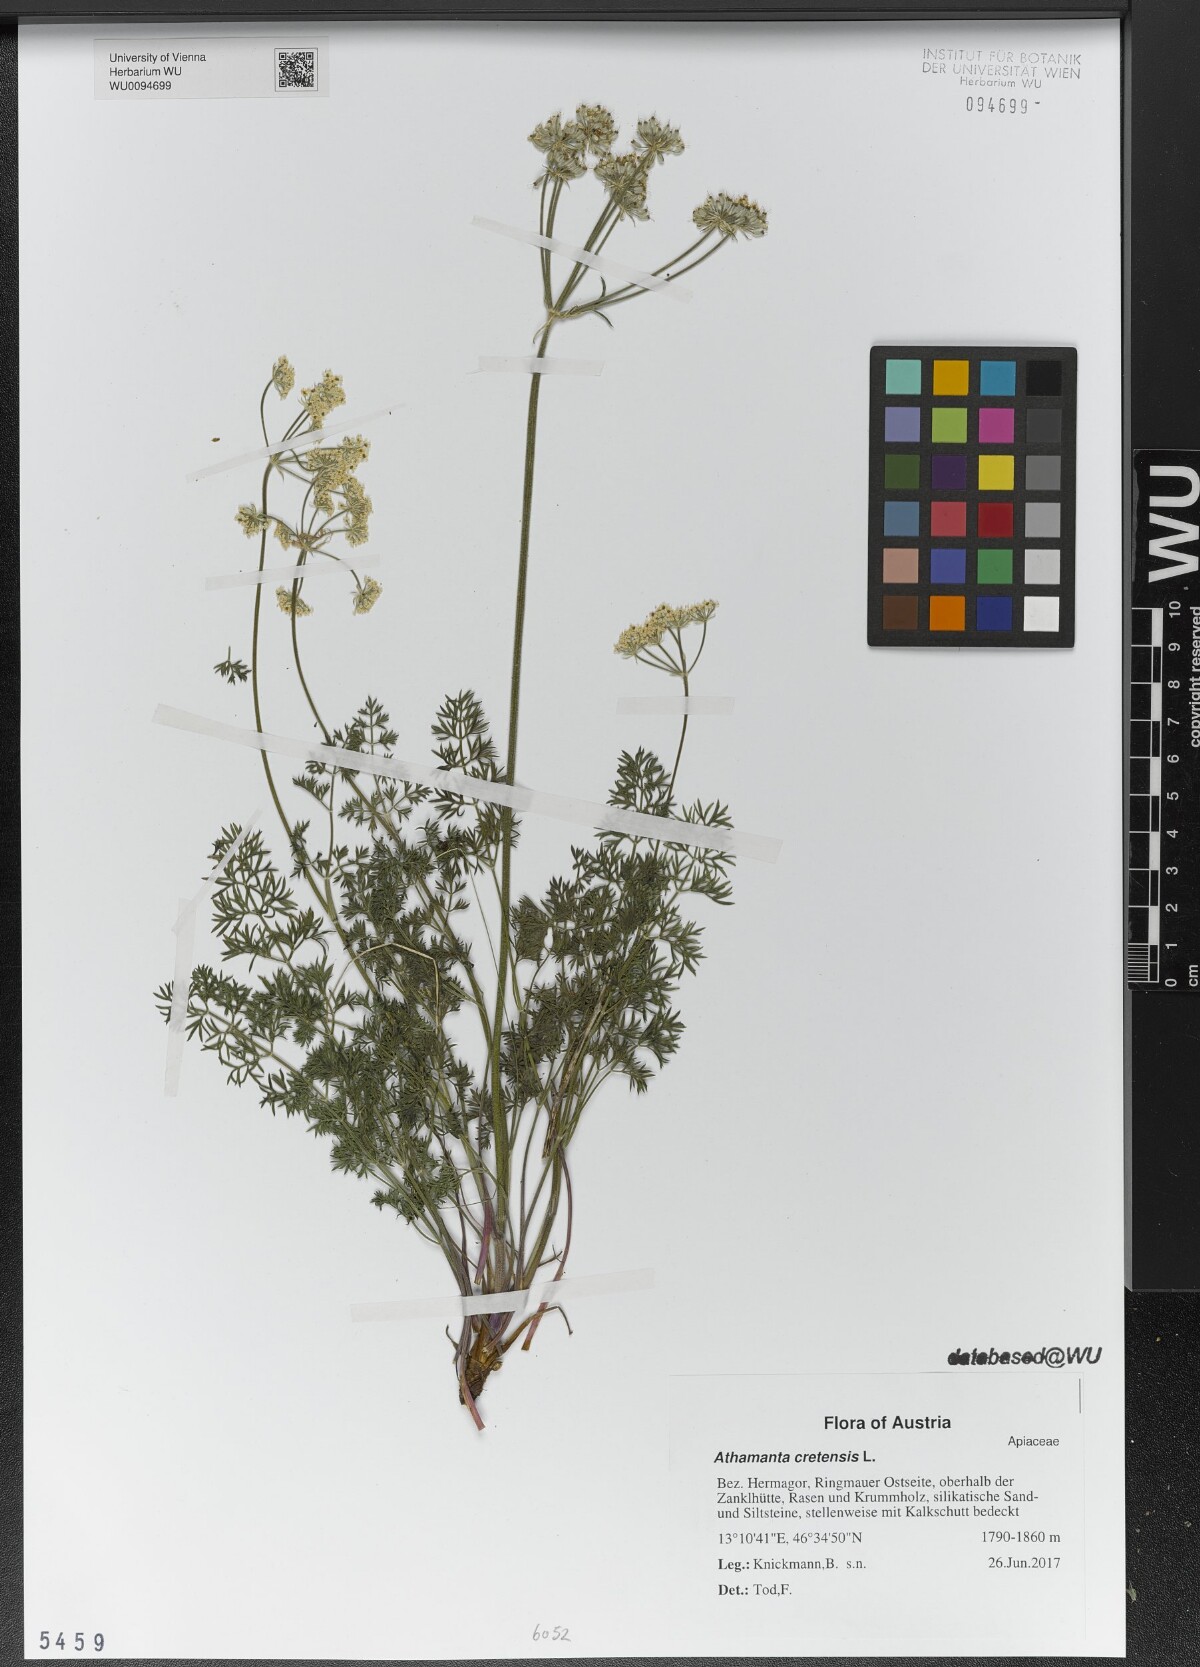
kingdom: Plantae
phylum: Tracheophyta
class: Magnoliopsida
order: Apiales
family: Apiaceae
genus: Athamanta
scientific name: Athamanta cretensis
